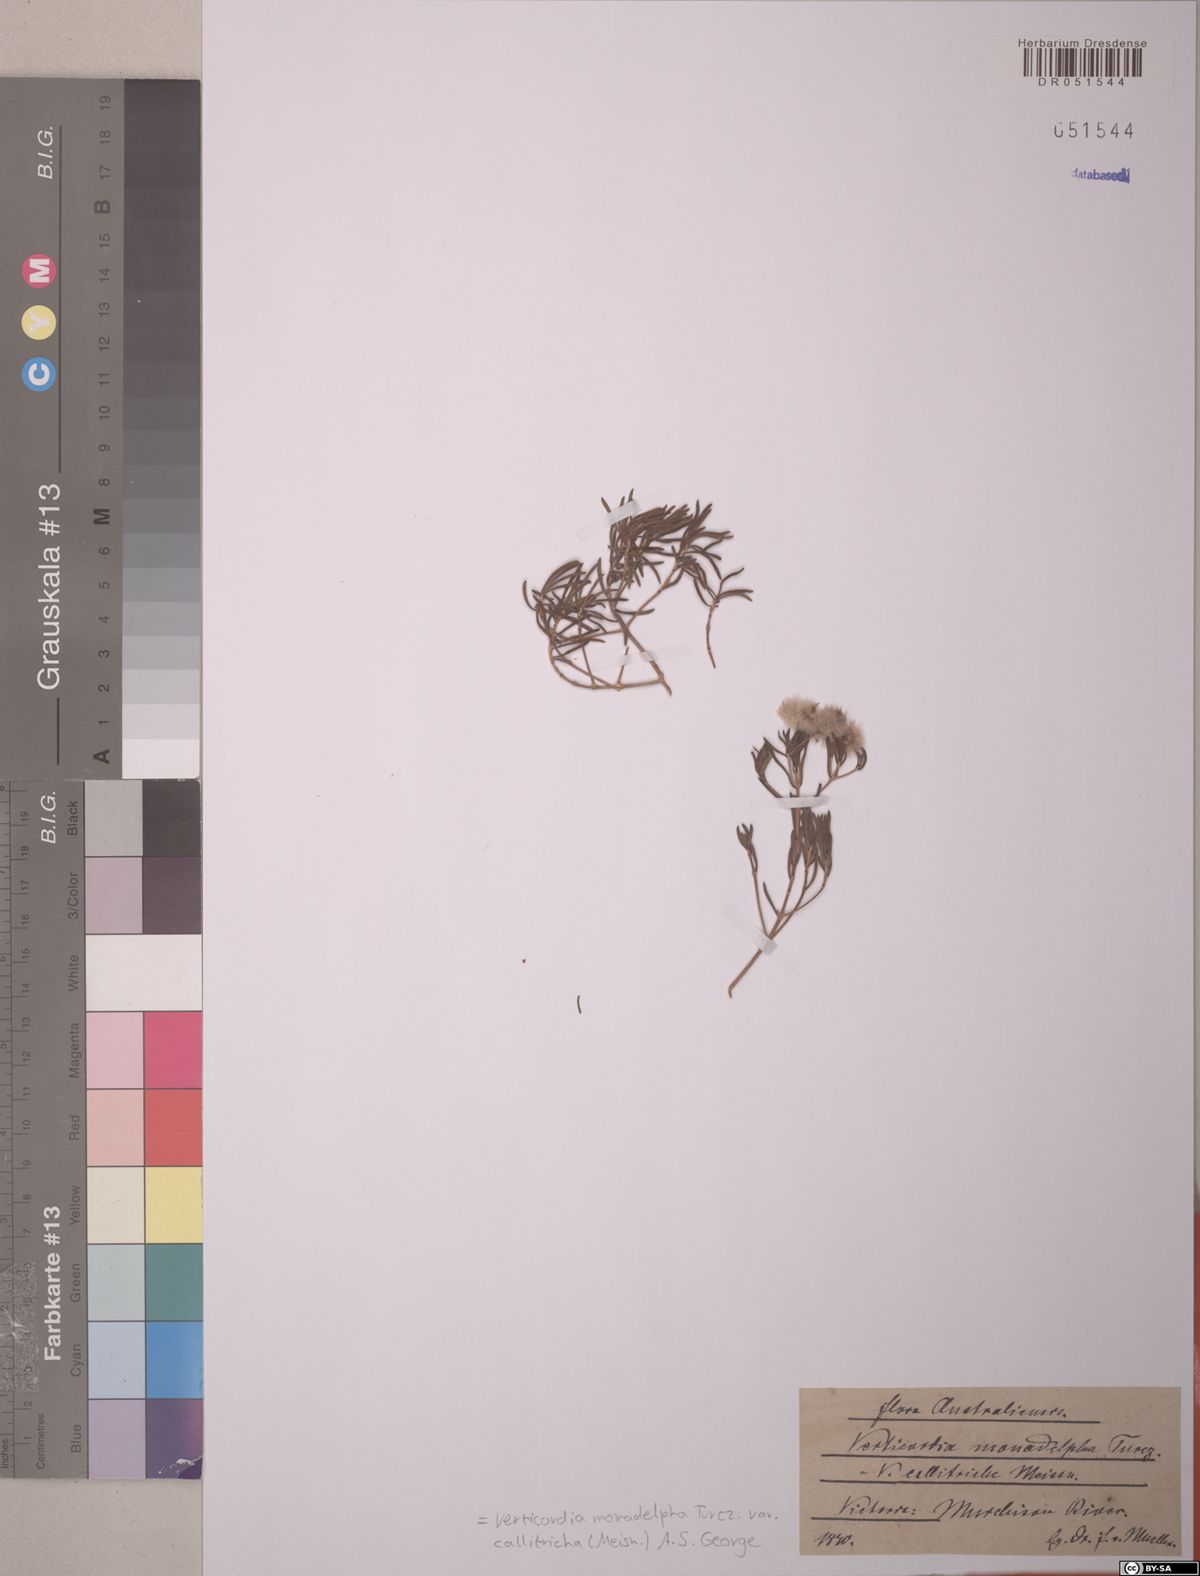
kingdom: Plantae
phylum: Tracheophyta
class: Magnoliopsida
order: Myrtales
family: Myrtaceae
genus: Verticordia
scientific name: Verticordia monadelpha
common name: Woolly feather-flower
